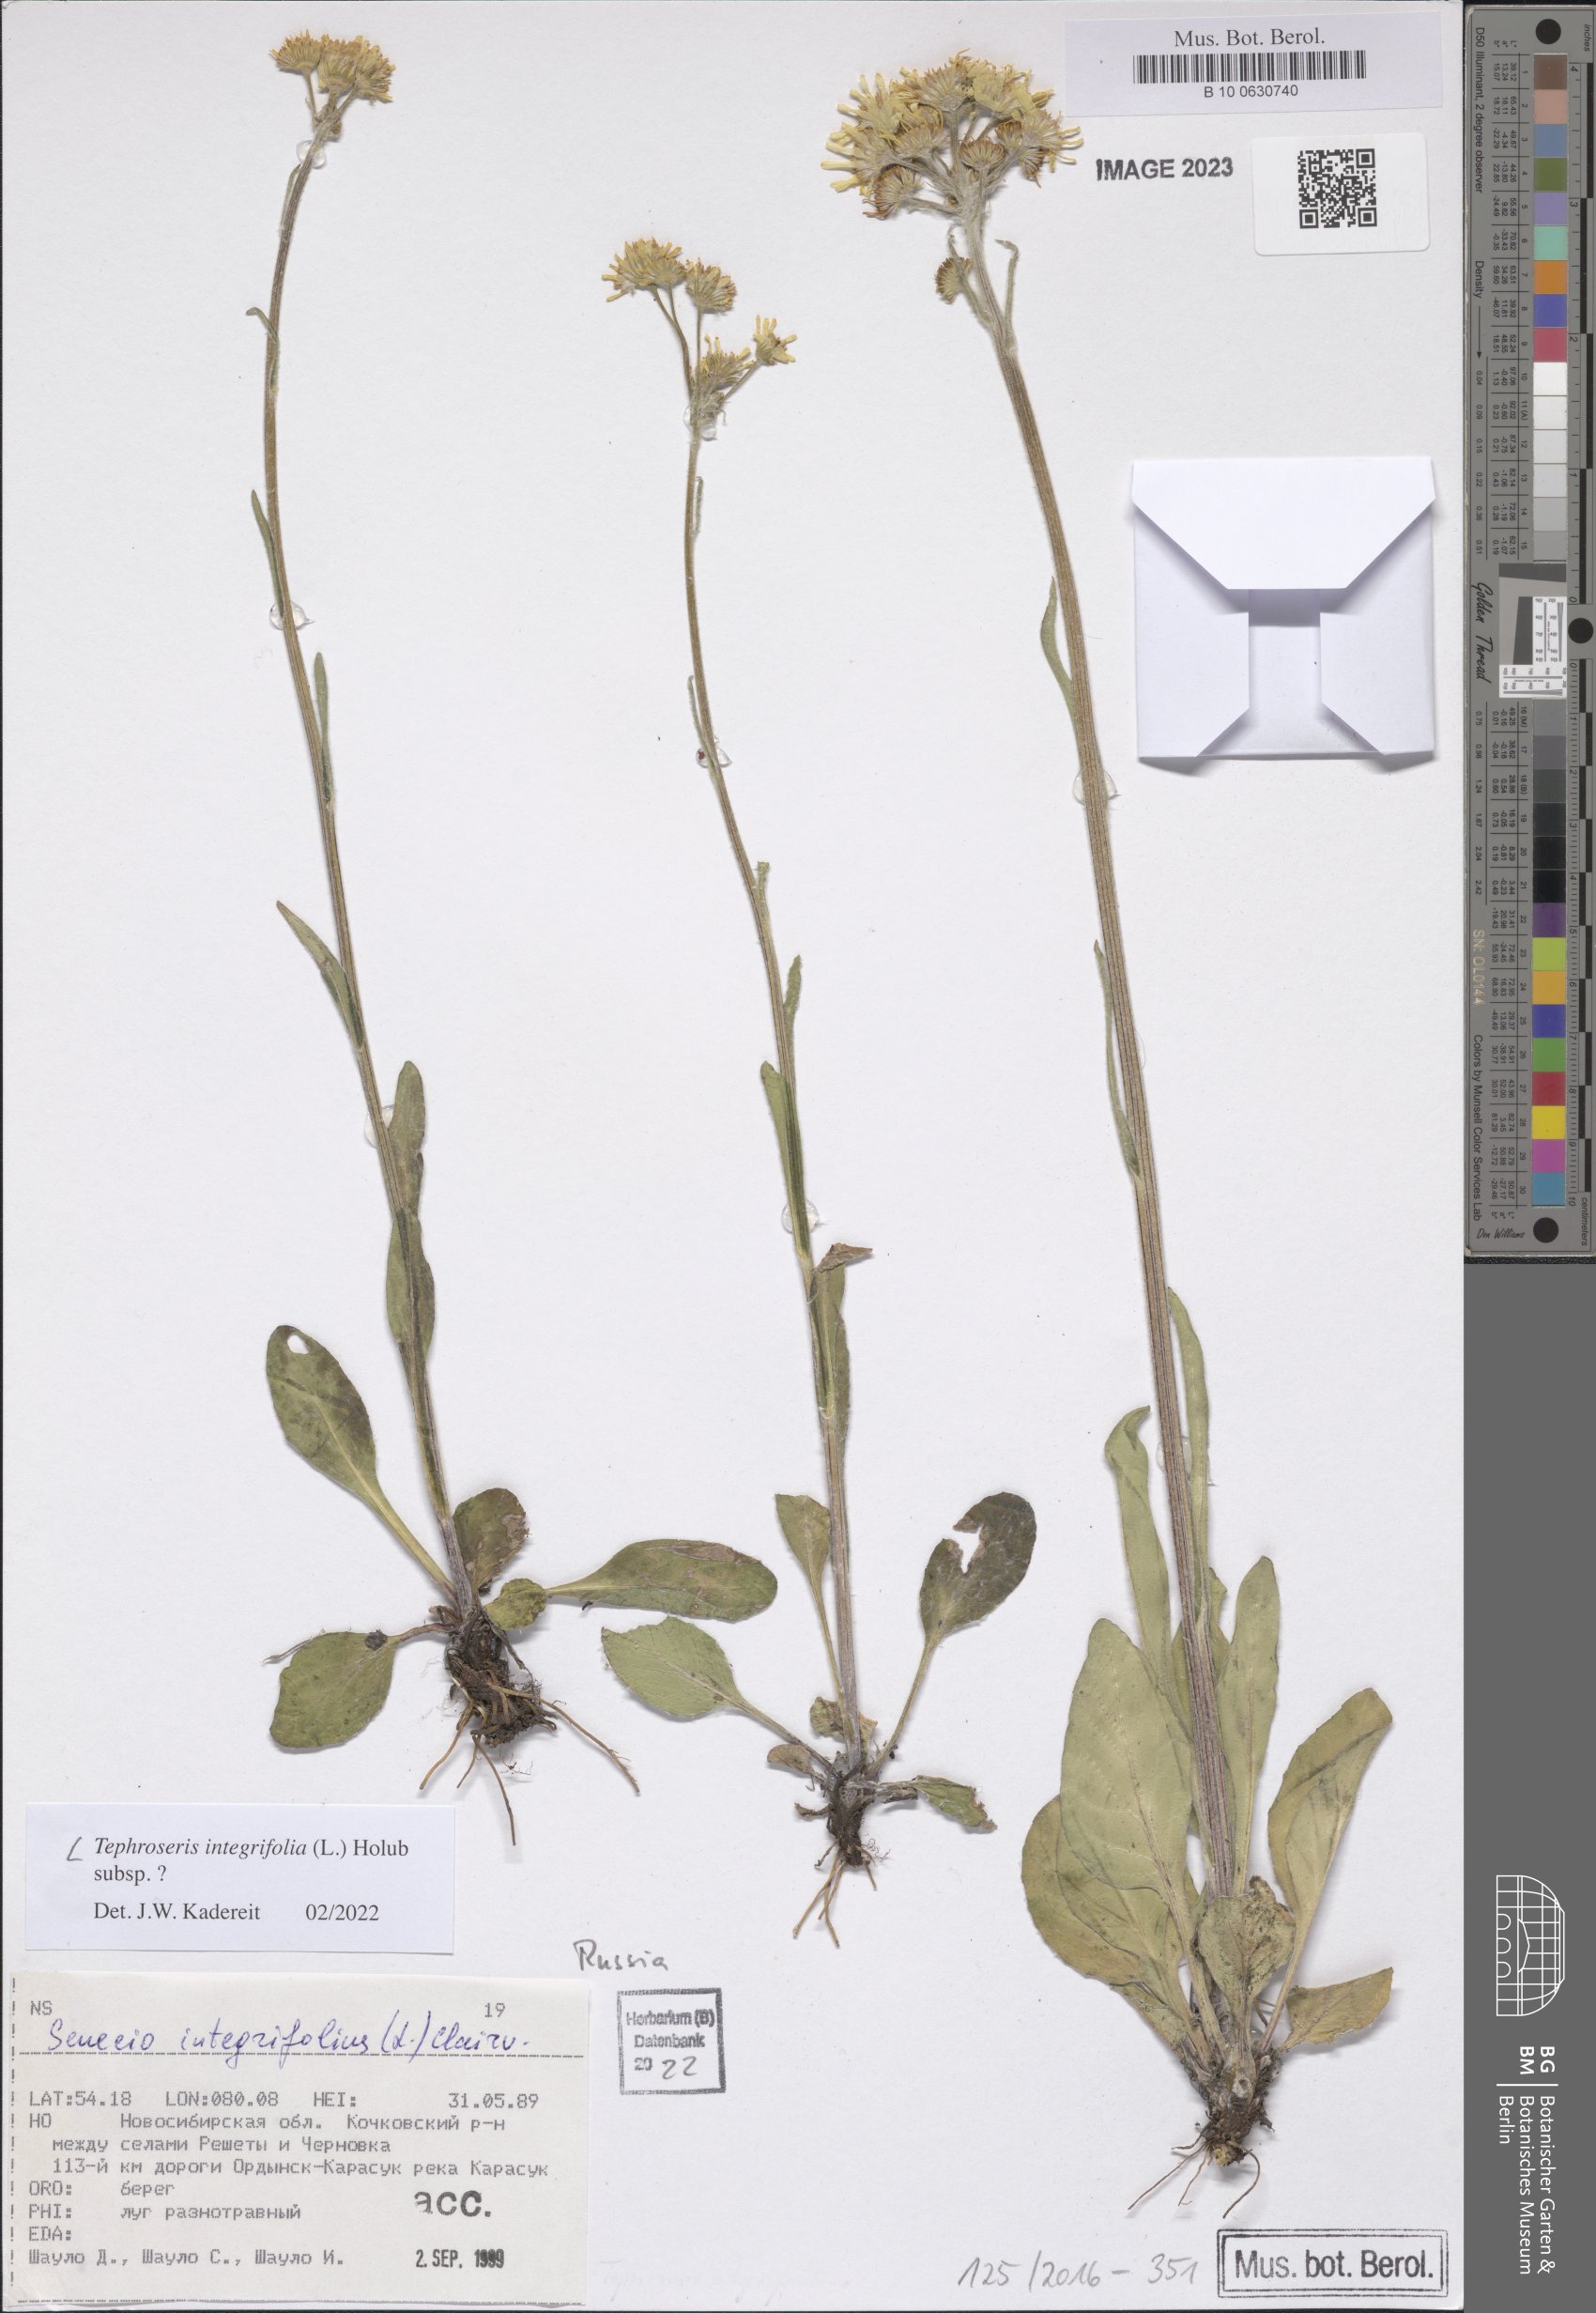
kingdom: Plantae
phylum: Tracheophyta
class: Magnoliopsida
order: Asterales
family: Asteraceae
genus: Tephroseris
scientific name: Tephroseris integrifolia
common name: Field fleawort
